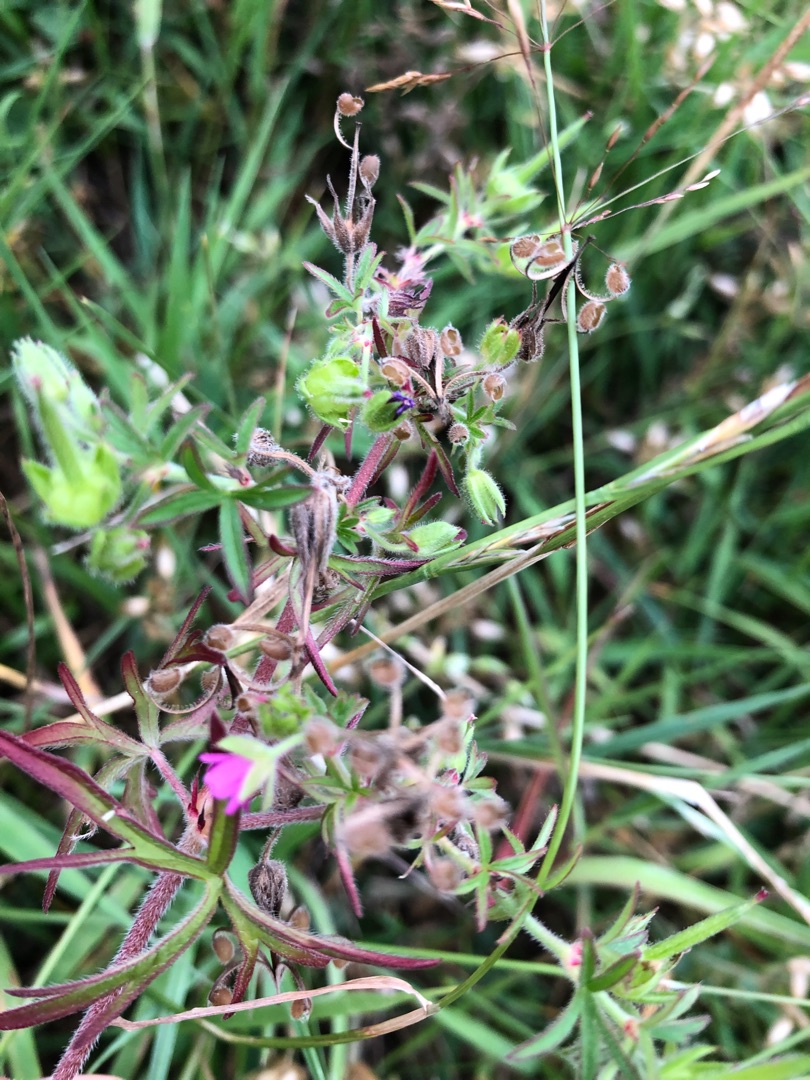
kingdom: Plantae
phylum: Tracheophyta
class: Magnoliopsida
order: Geraniales
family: Geraniaceae
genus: Geranium
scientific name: Geranium dissectum
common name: Kløftet storkenæb
